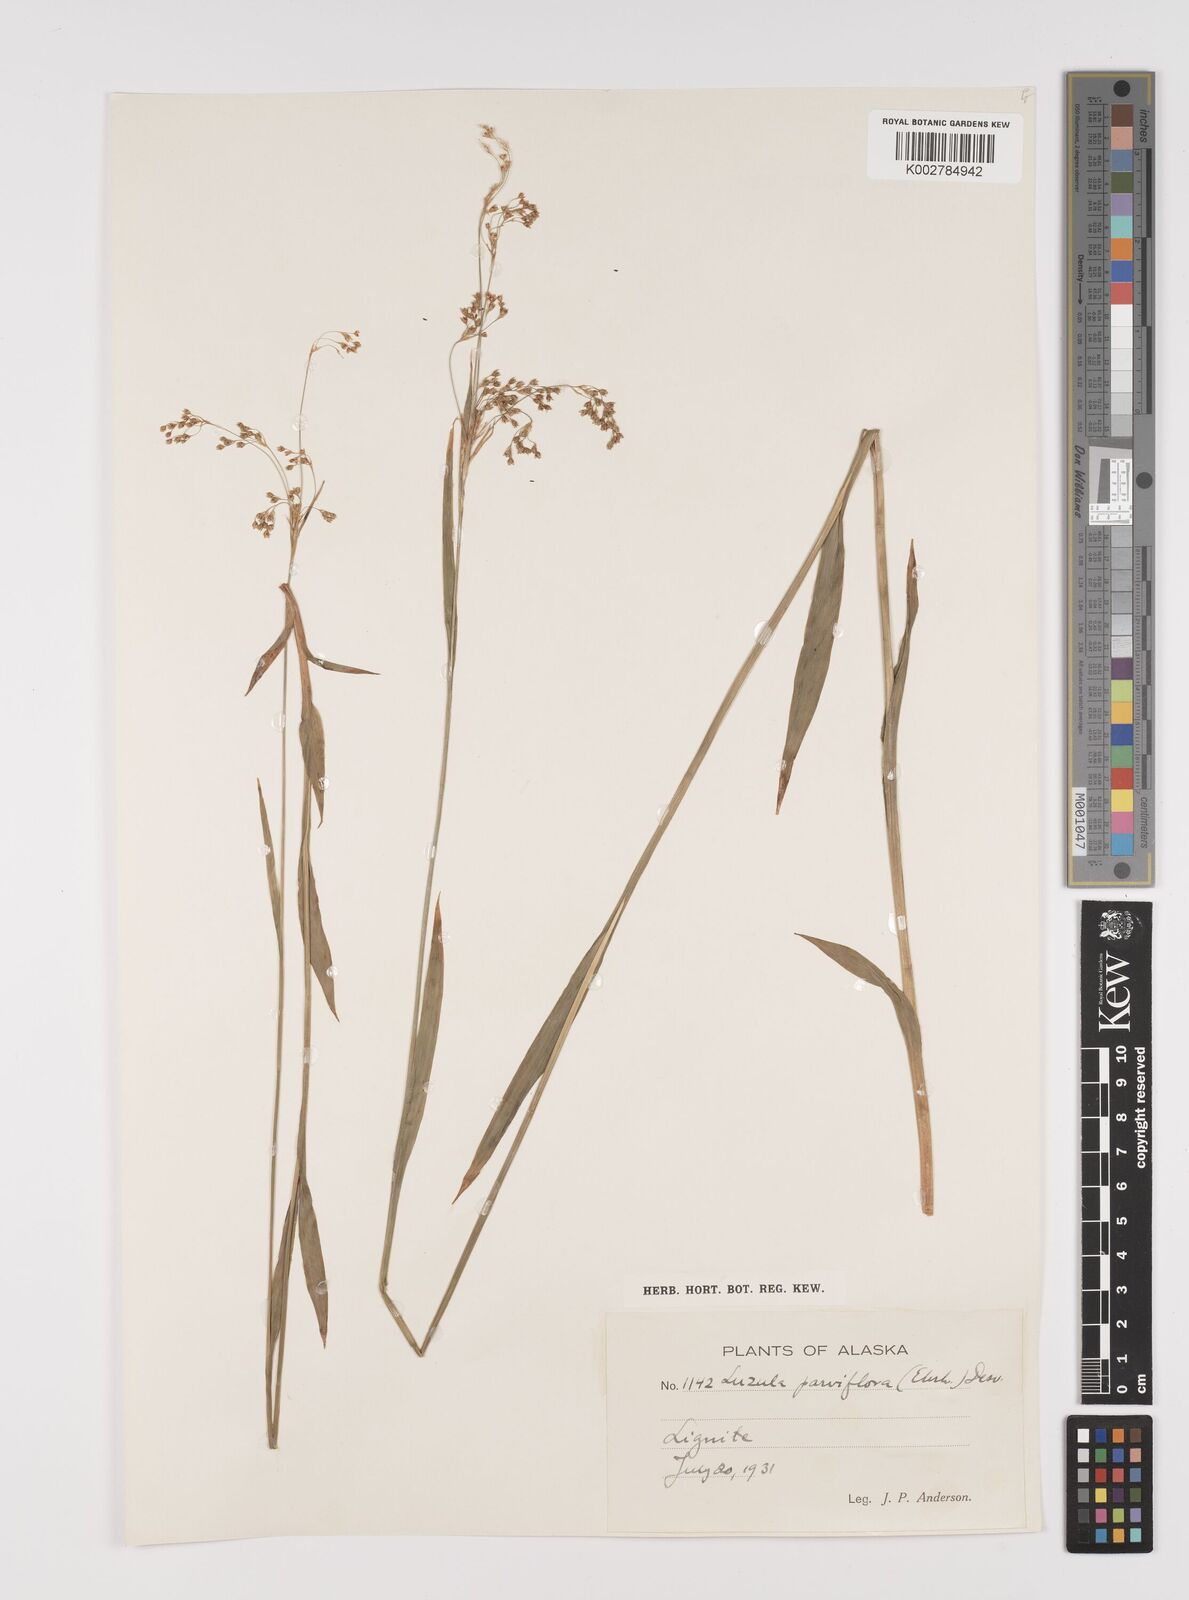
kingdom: Plantae
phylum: Tracheophyta
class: Liliopsida
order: Poales
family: Juncaceae
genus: Luzula
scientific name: Luzula parviflora
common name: Millet woodrush
